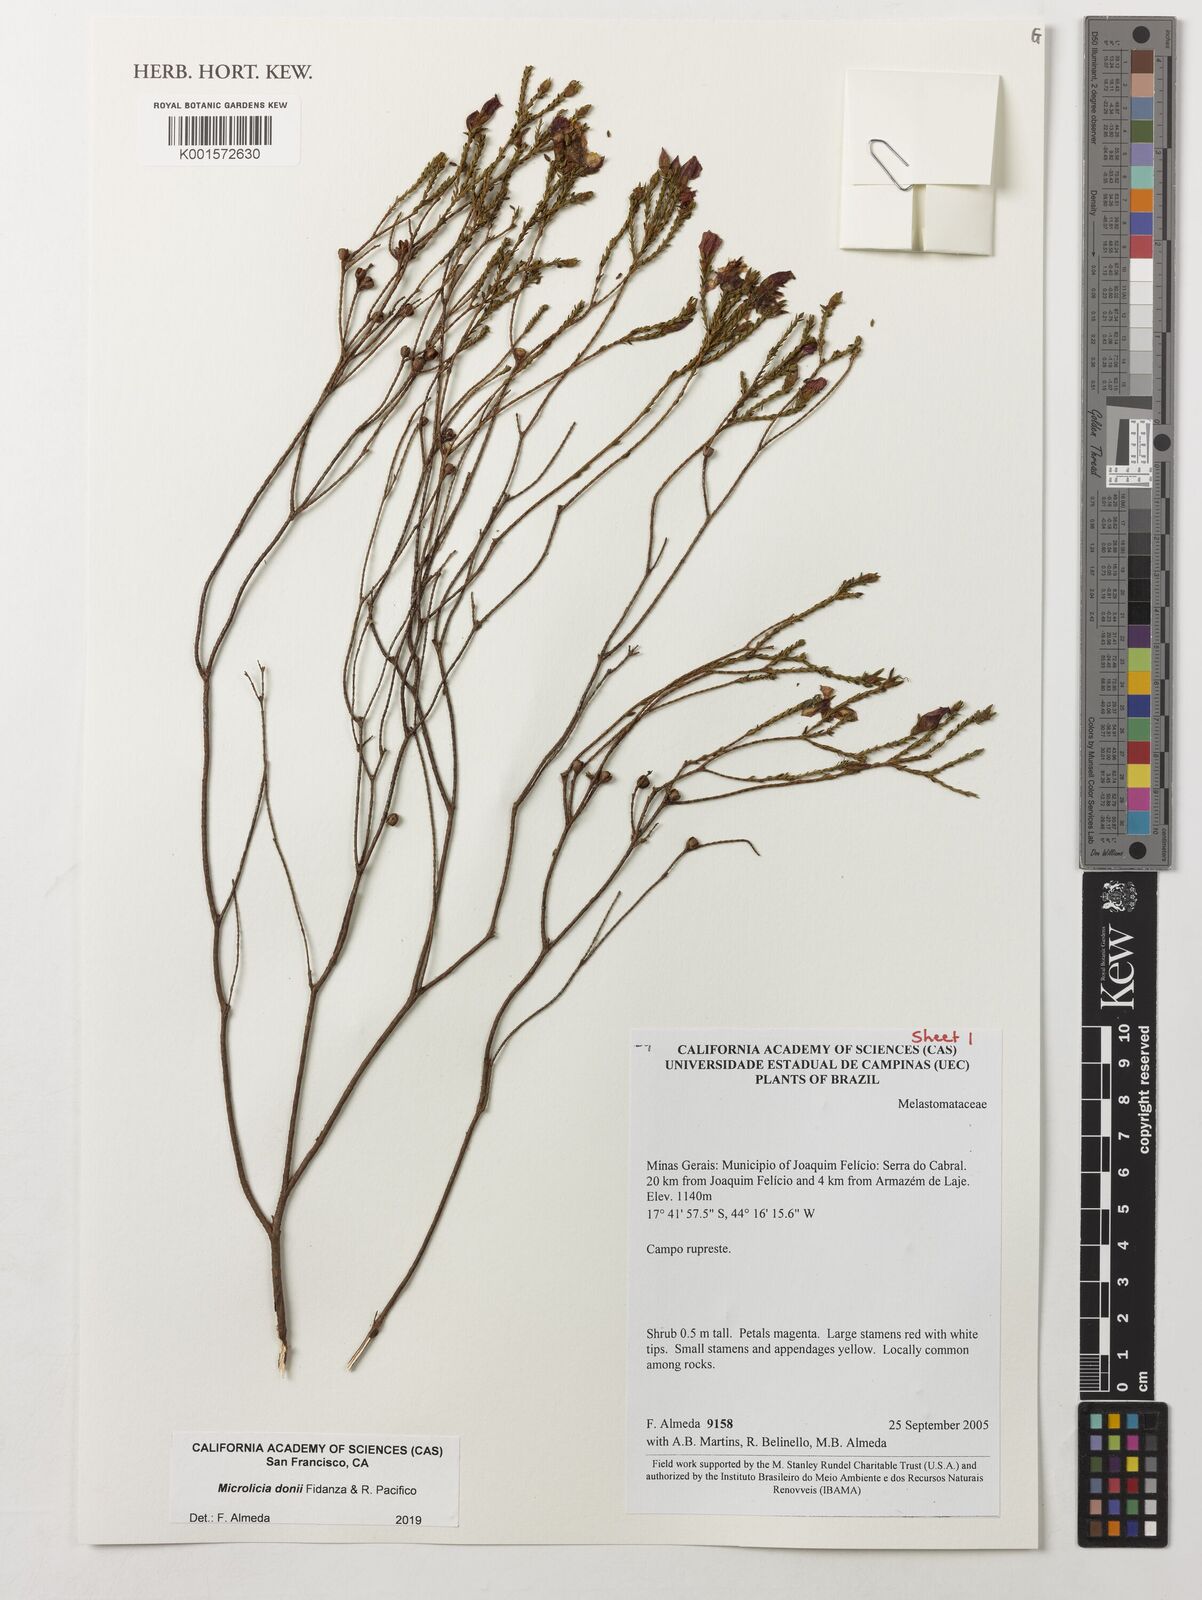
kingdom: Plantae
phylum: Tracheophyta
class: Magnoliopsida
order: Myrtales
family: Melastomataceae
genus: Microlicia
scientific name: Microlicia donii
